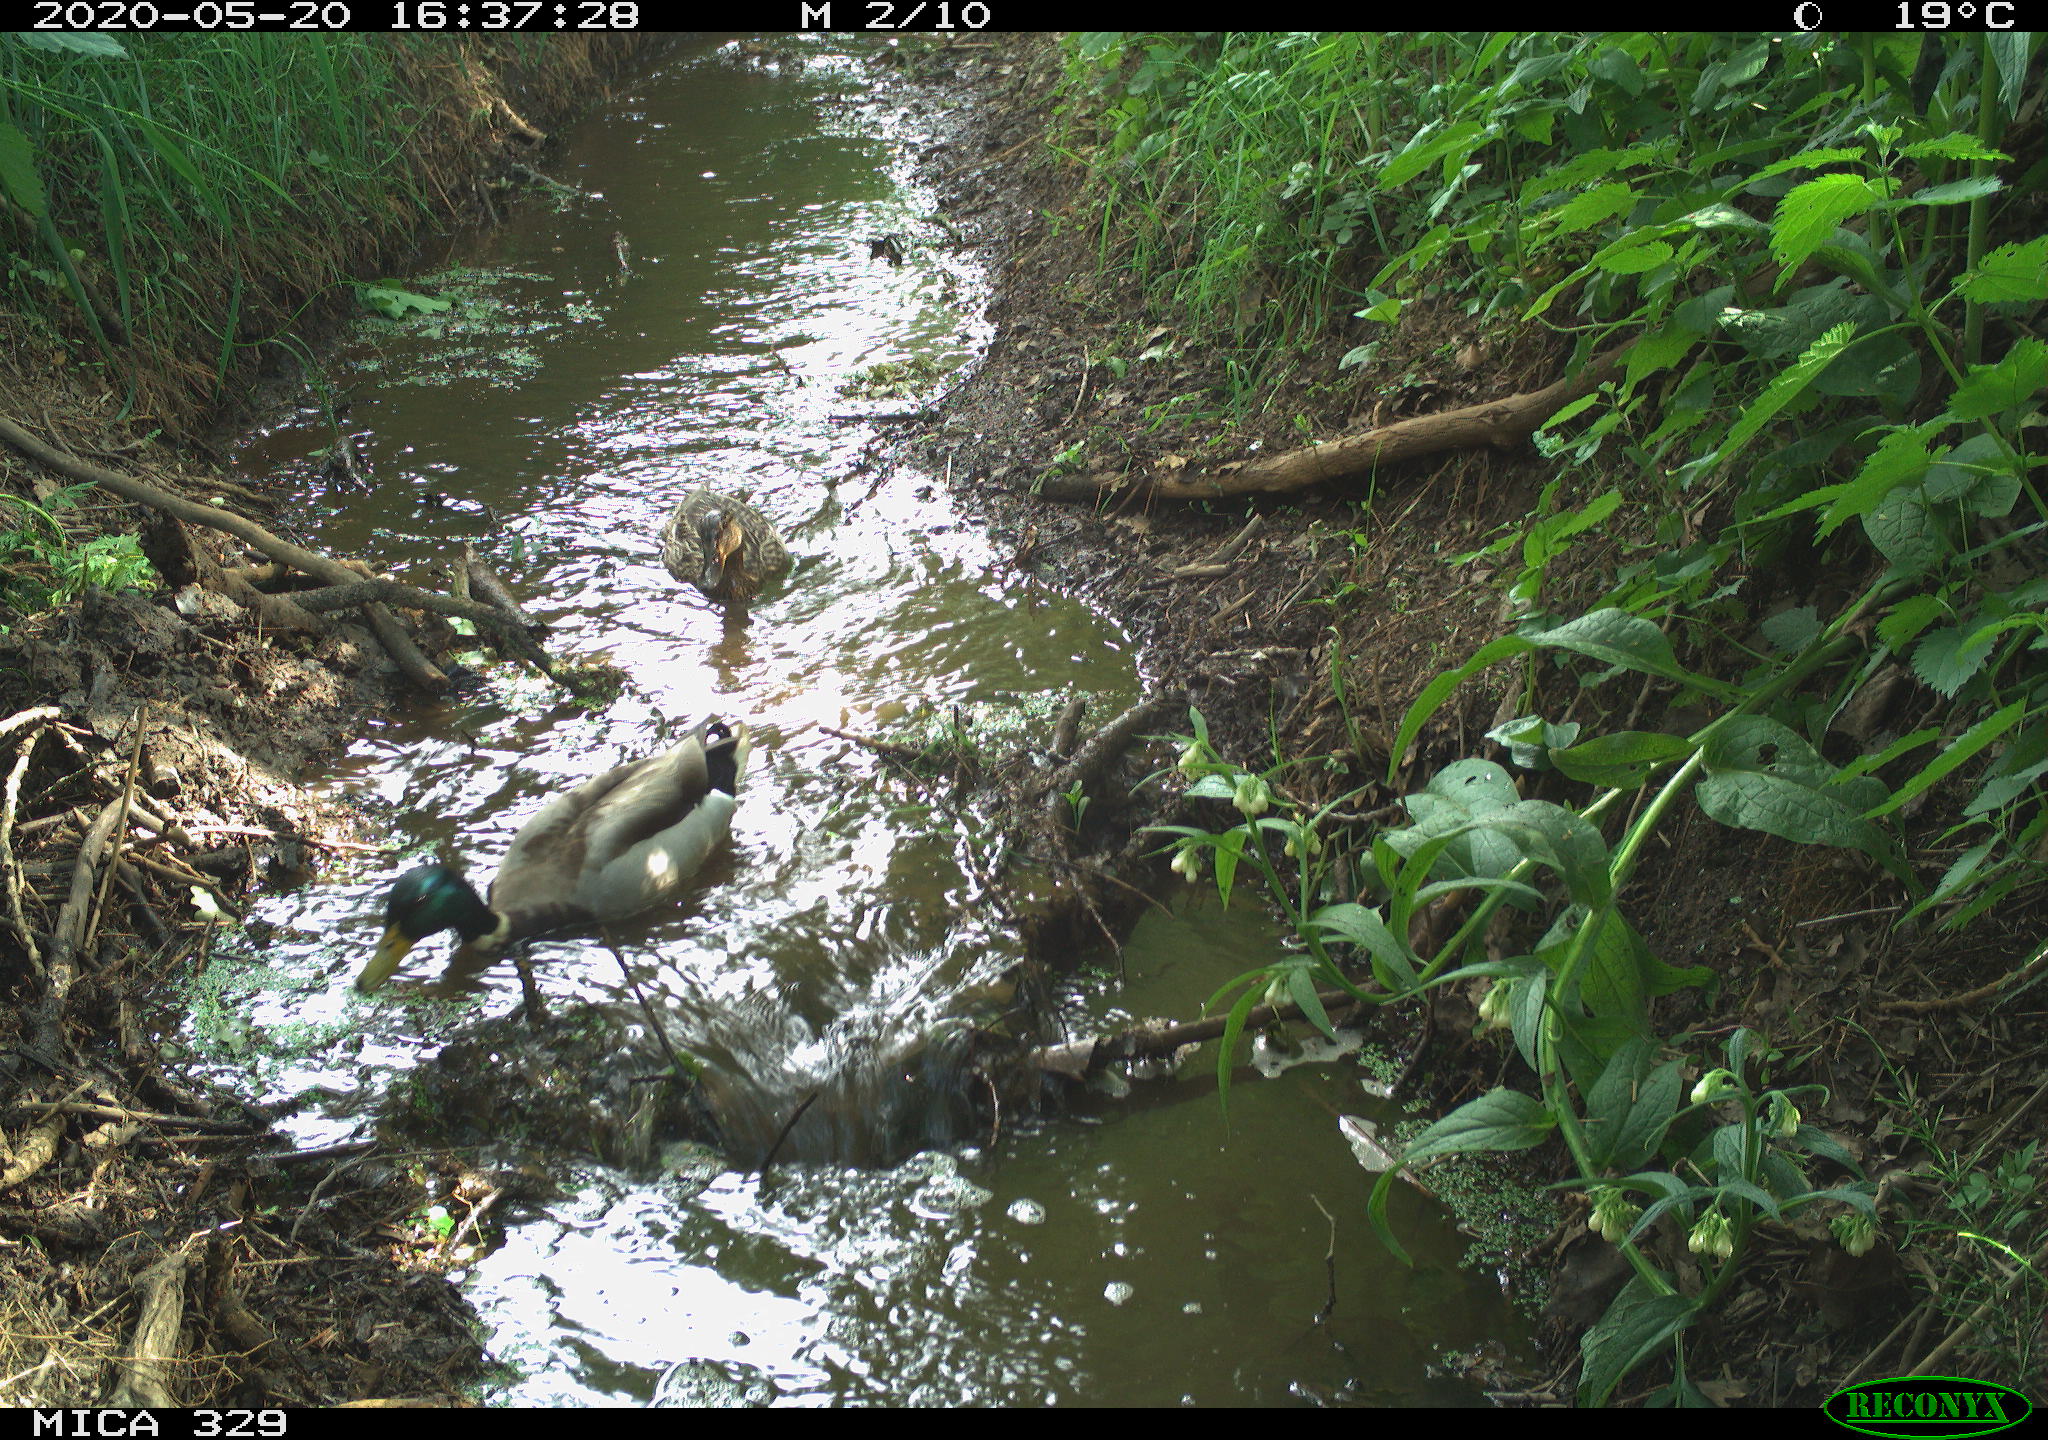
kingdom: Animalia
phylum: Chordata
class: Aves
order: Anseriformes
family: Anatidae
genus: Anas
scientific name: Anas platyrhynchos
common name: Mallard
